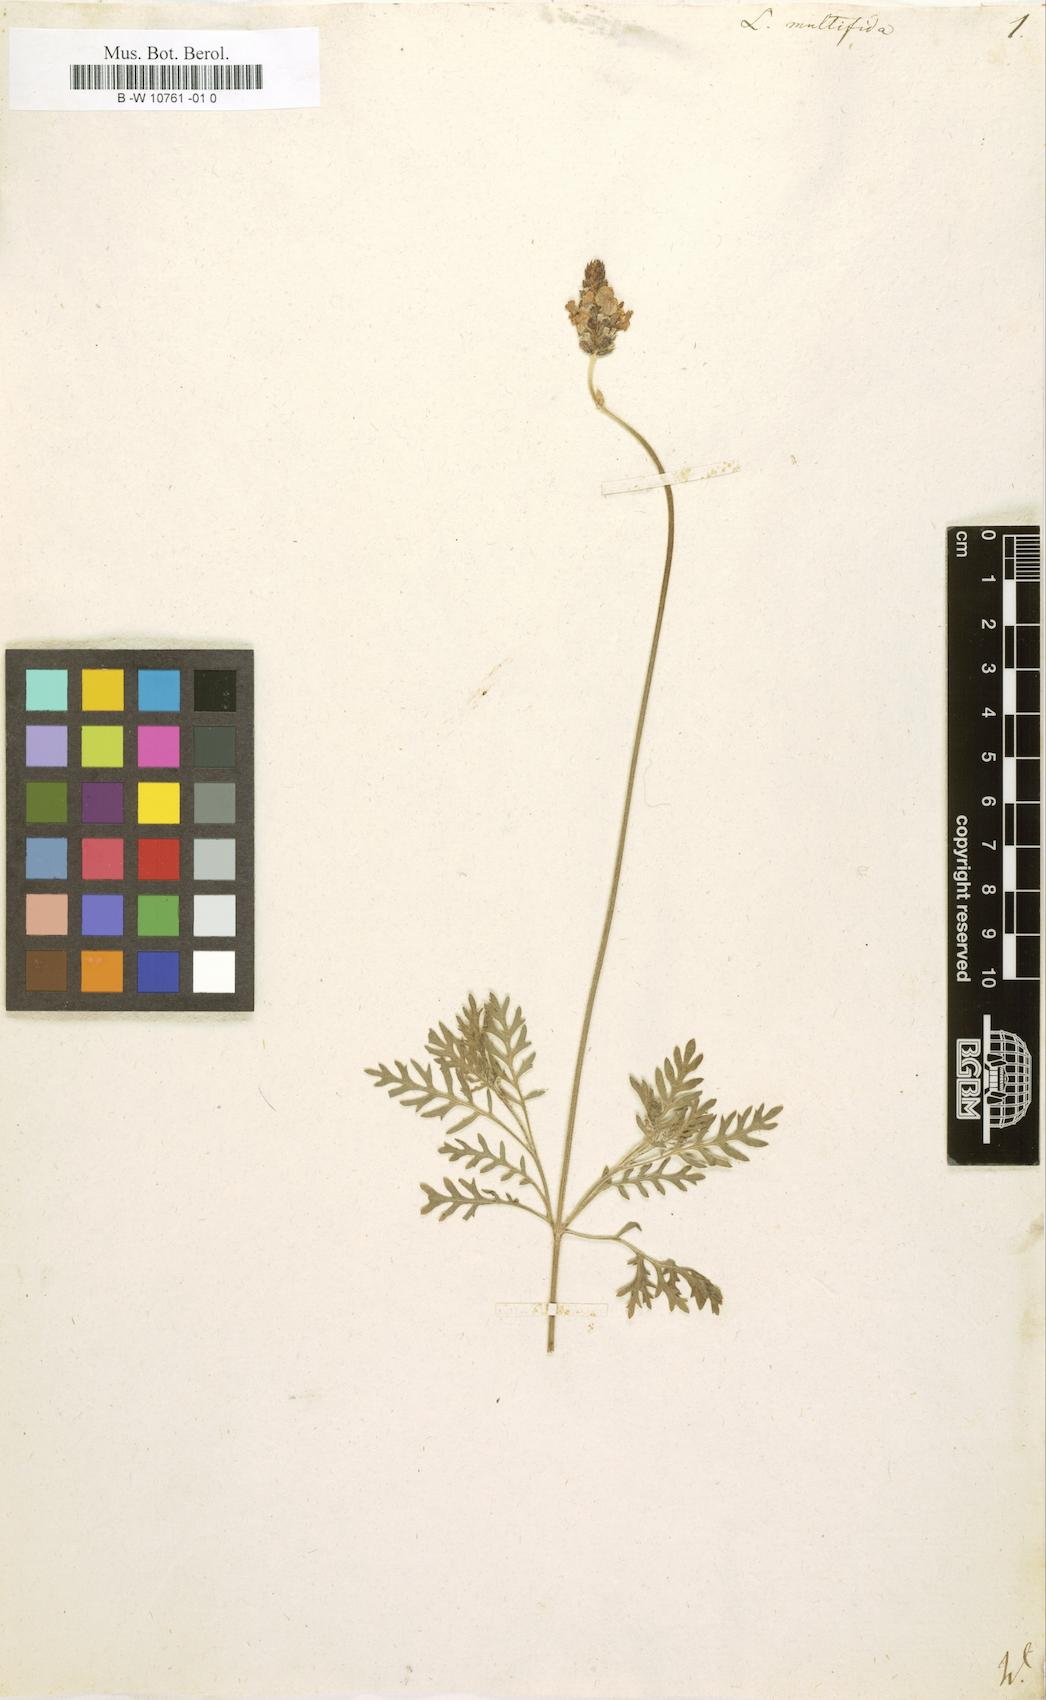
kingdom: Plantae
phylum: Tracheophyta
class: Magnoliopsida
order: Lamiales
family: Lamiaceae
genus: Lavandula
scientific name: Lavandula multifida
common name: Fern-leaf lavender
